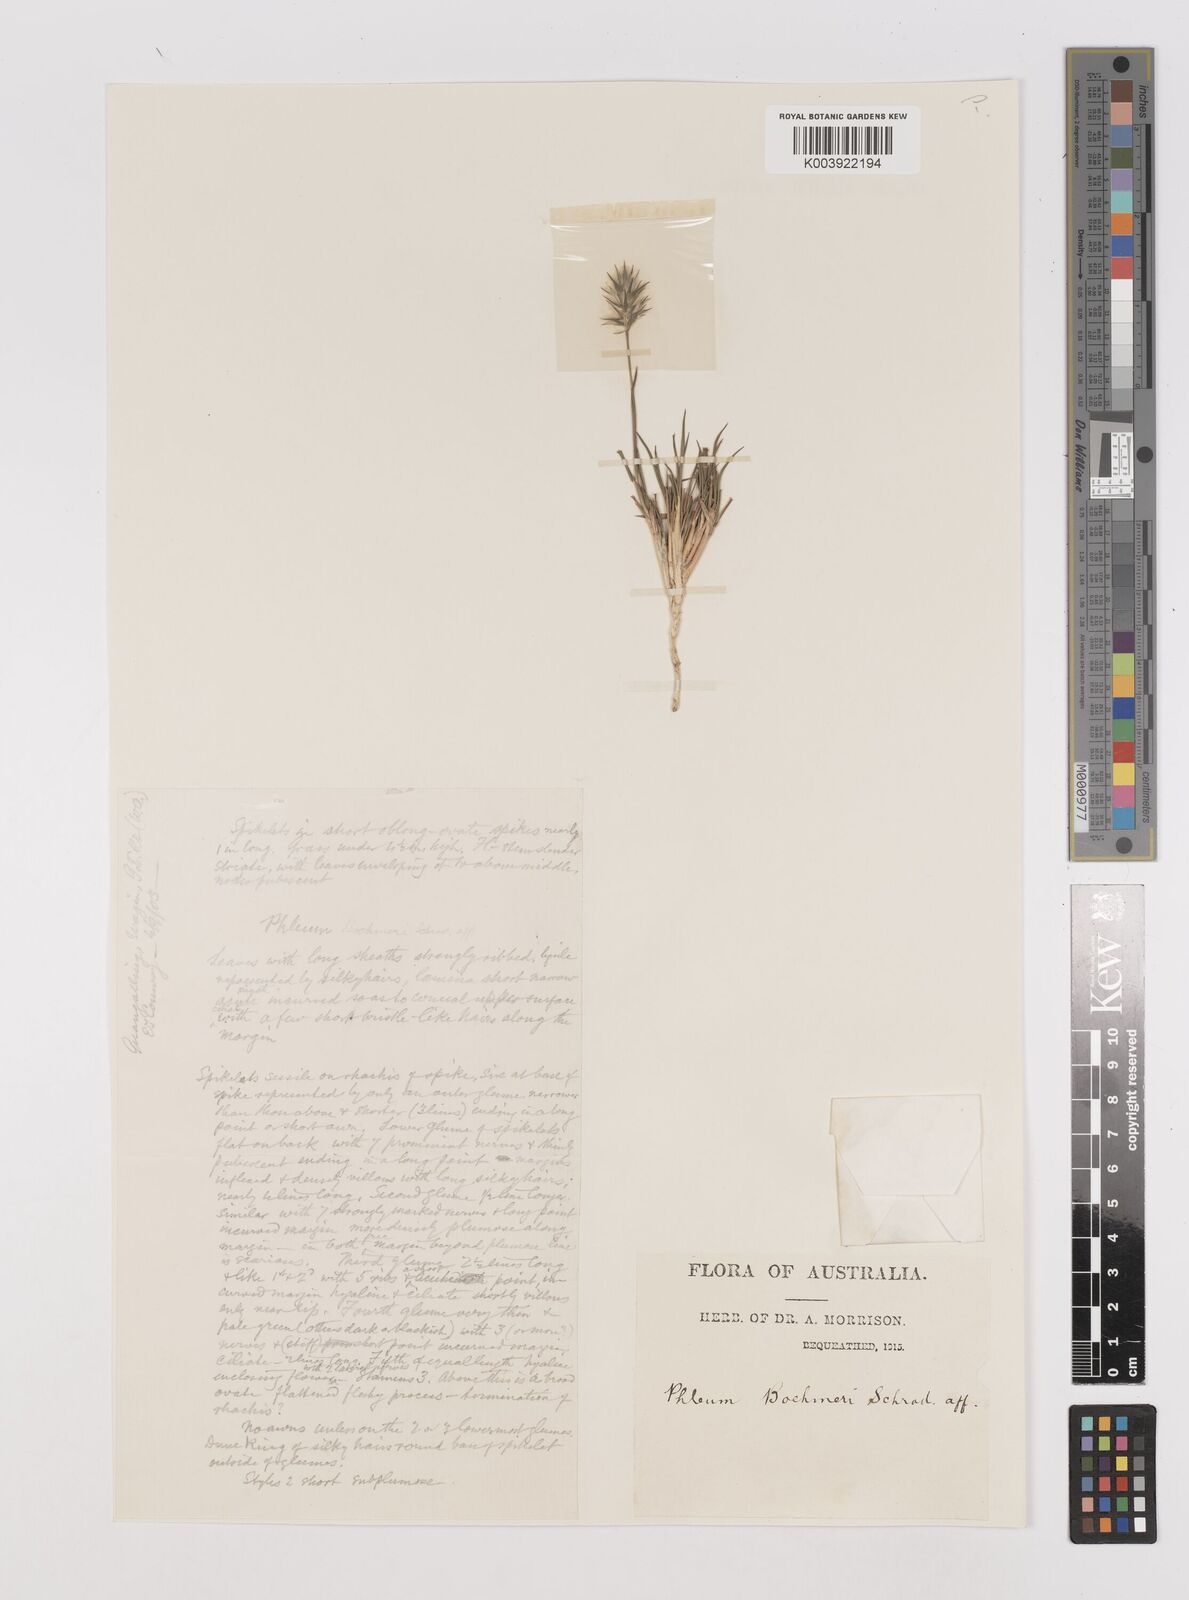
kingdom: Plantae
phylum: Tracheophyta
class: Liliopsida
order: Poales
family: Poaceae
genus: Neurachne
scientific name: Neurachne alopecuroidea
